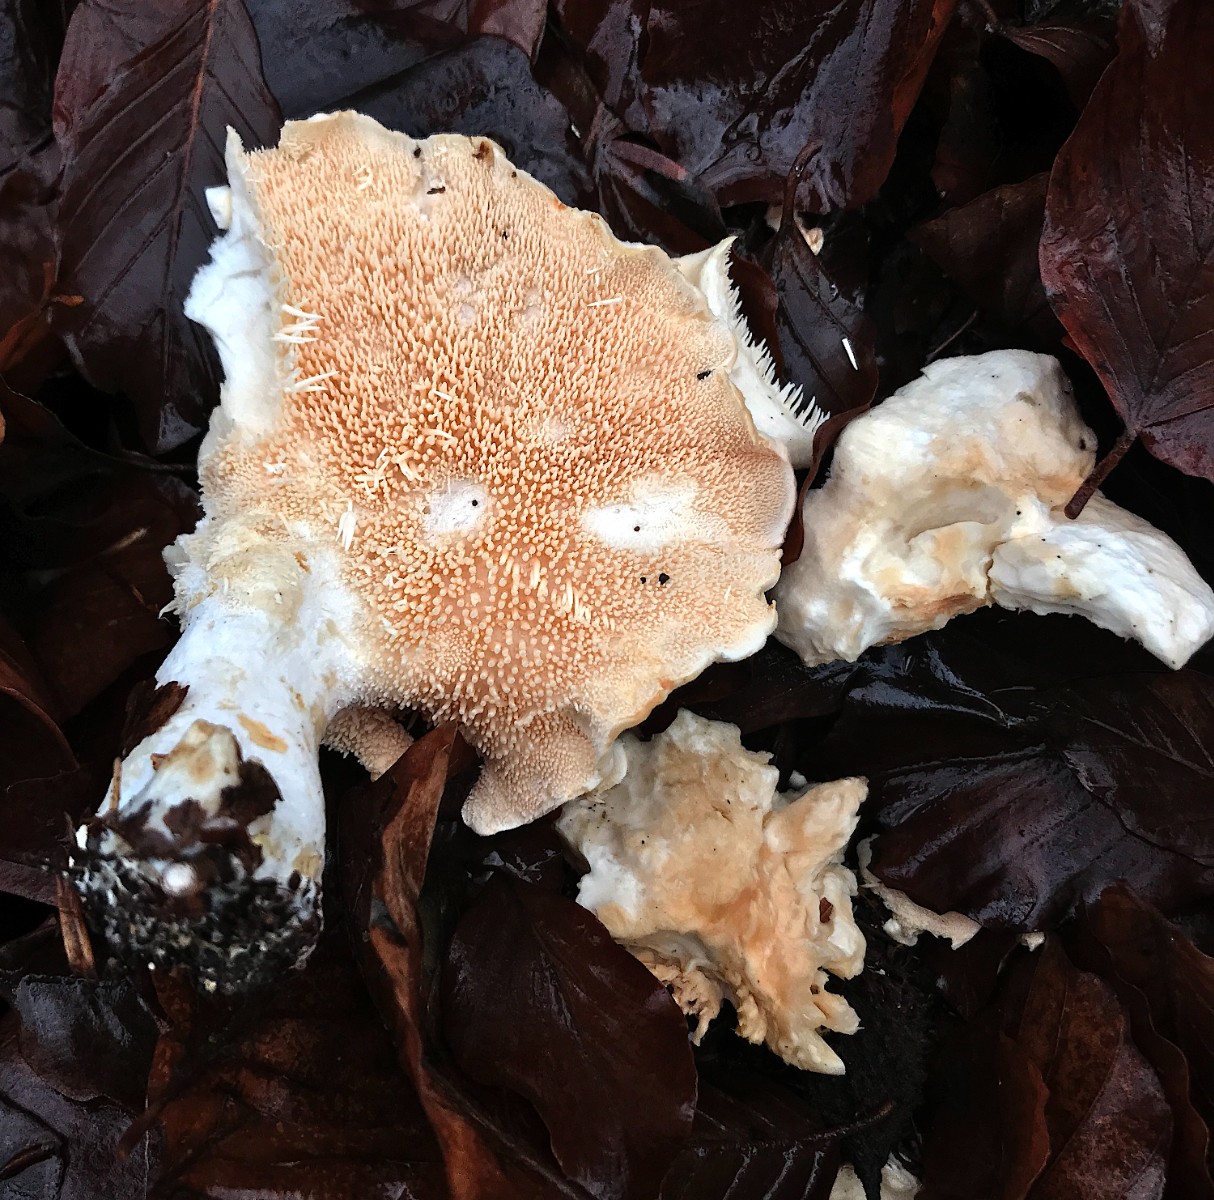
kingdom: Fungi
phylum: Basidiomycota
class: Agaricomycetes
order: Cantharellales
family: Hydnaceae
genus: Hydnum
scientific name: Hydnum repandum
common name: almindelig pigsvamp
